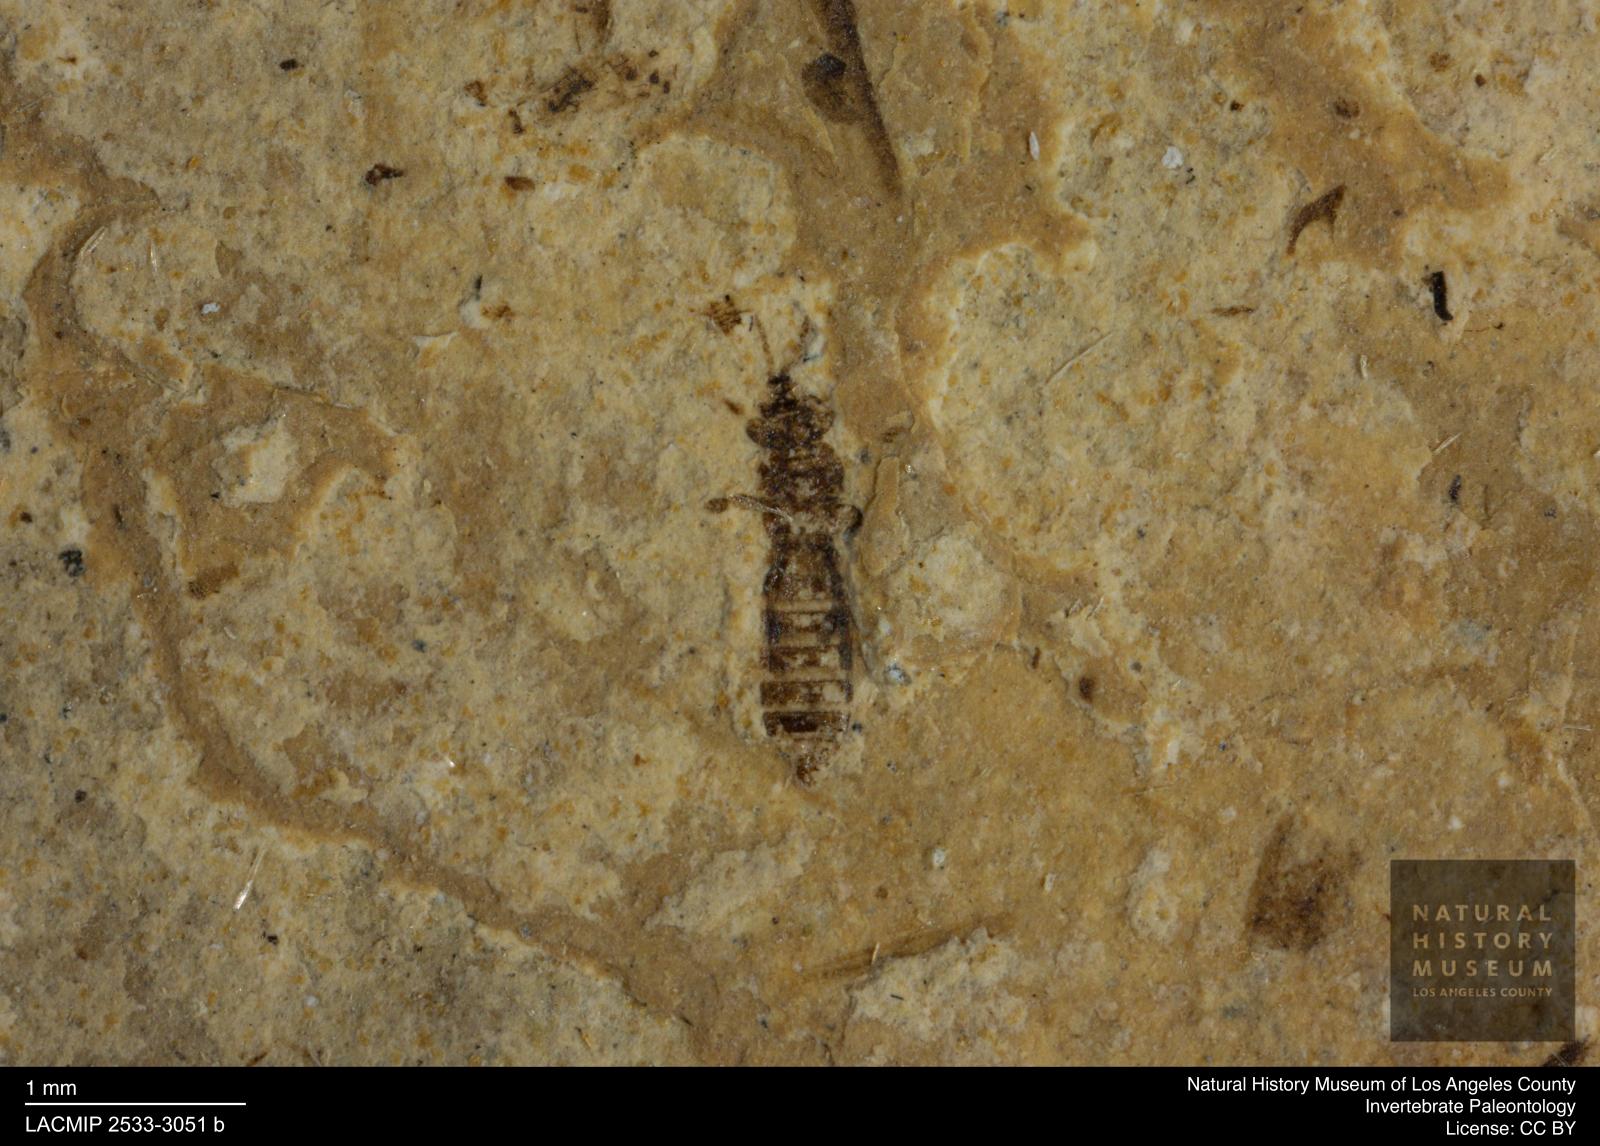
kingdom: Animalia
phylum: Arthropoda
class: Insecta
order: Thysanoptera
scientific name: Thysanoptera
